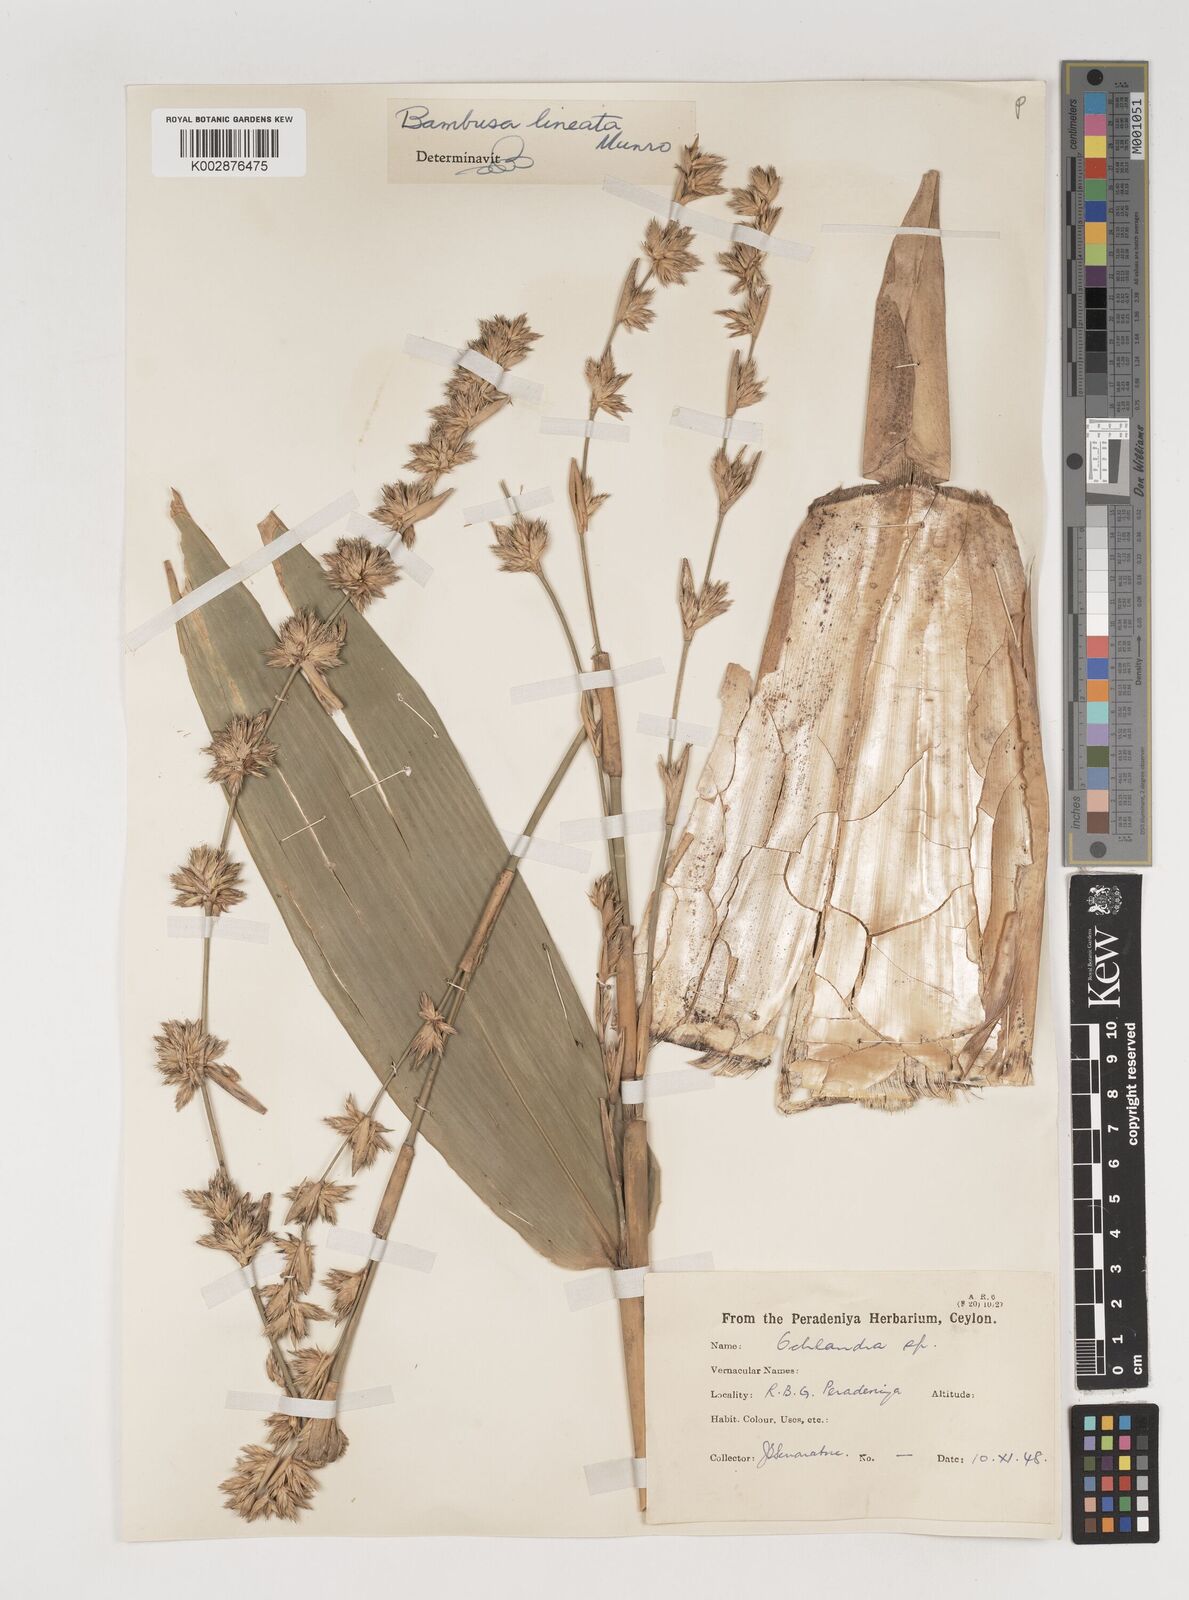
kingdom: Plantae
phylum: Tracheophyta
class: Liliopsida
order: Poales
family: Poaceae
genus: Neololeba
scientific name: Neololeba amahussana
